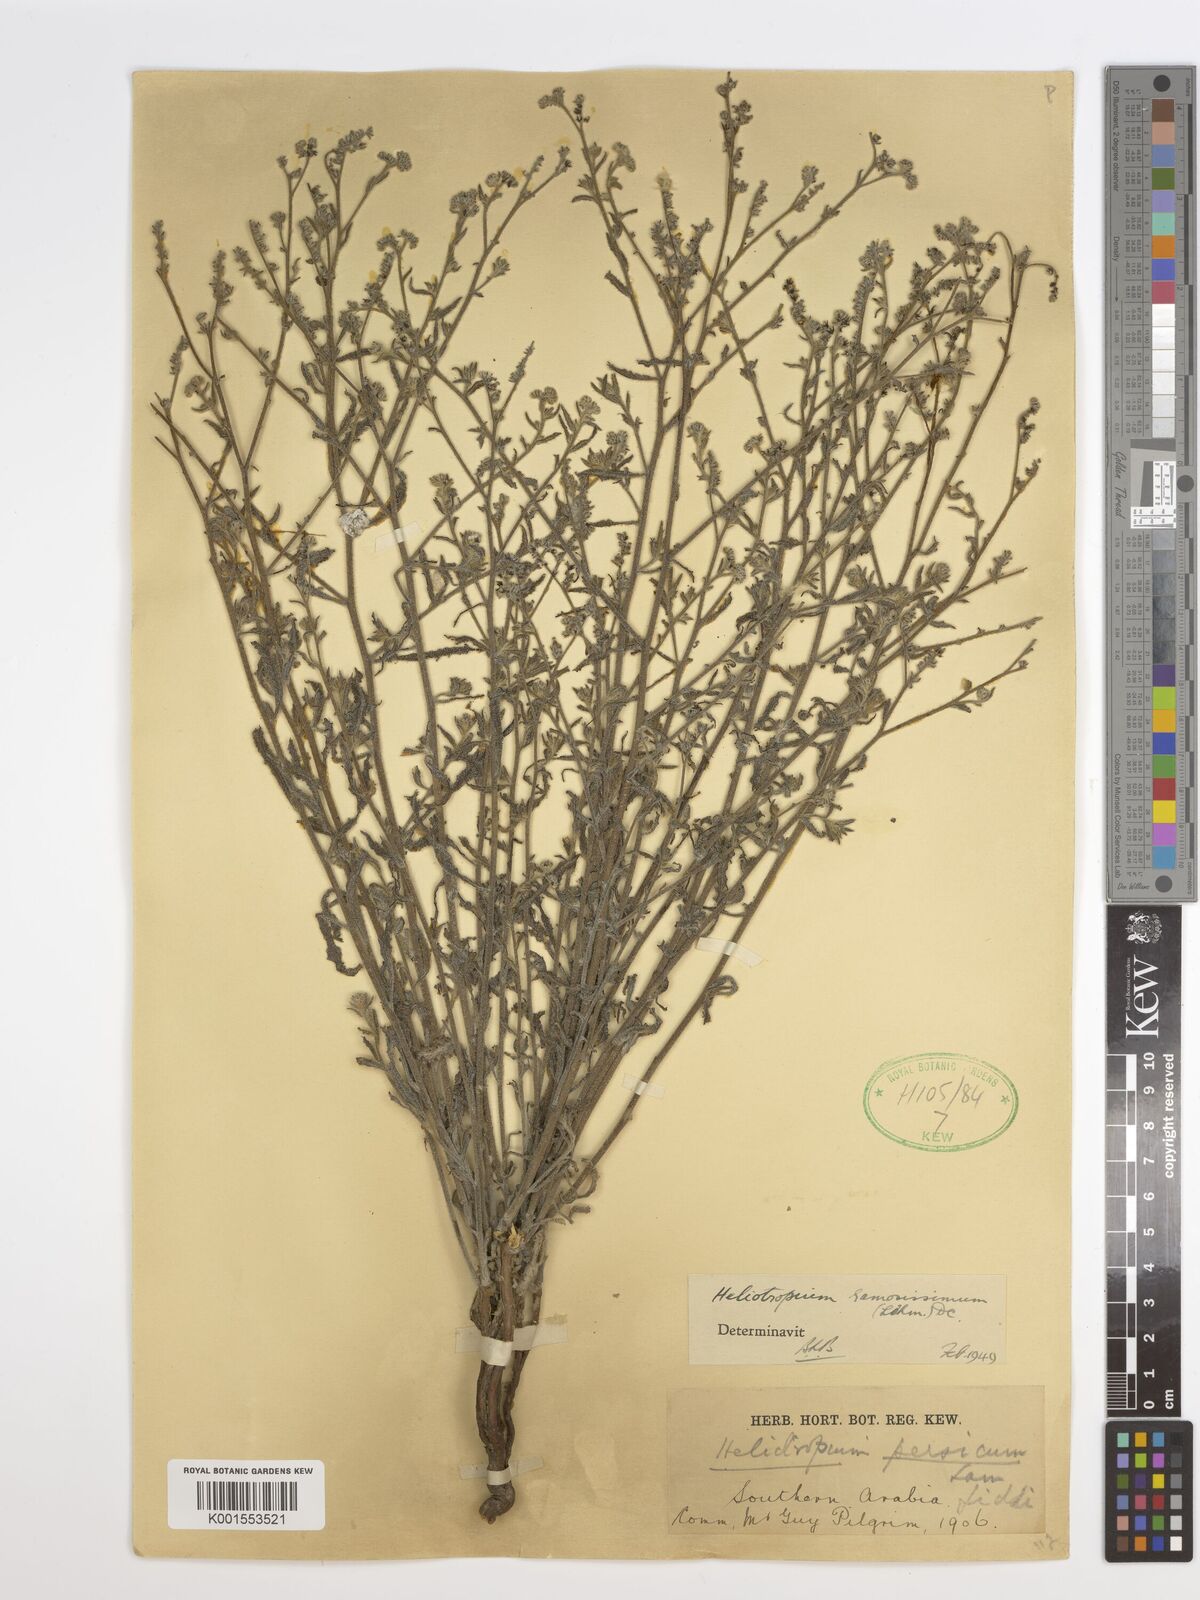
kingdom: Plantae
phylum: Tracheophyta
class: Magnoliopsida
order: Boraginales
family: Heliotropiaceae
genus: Heliotropium
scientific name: Heliotropium rotundifolium
